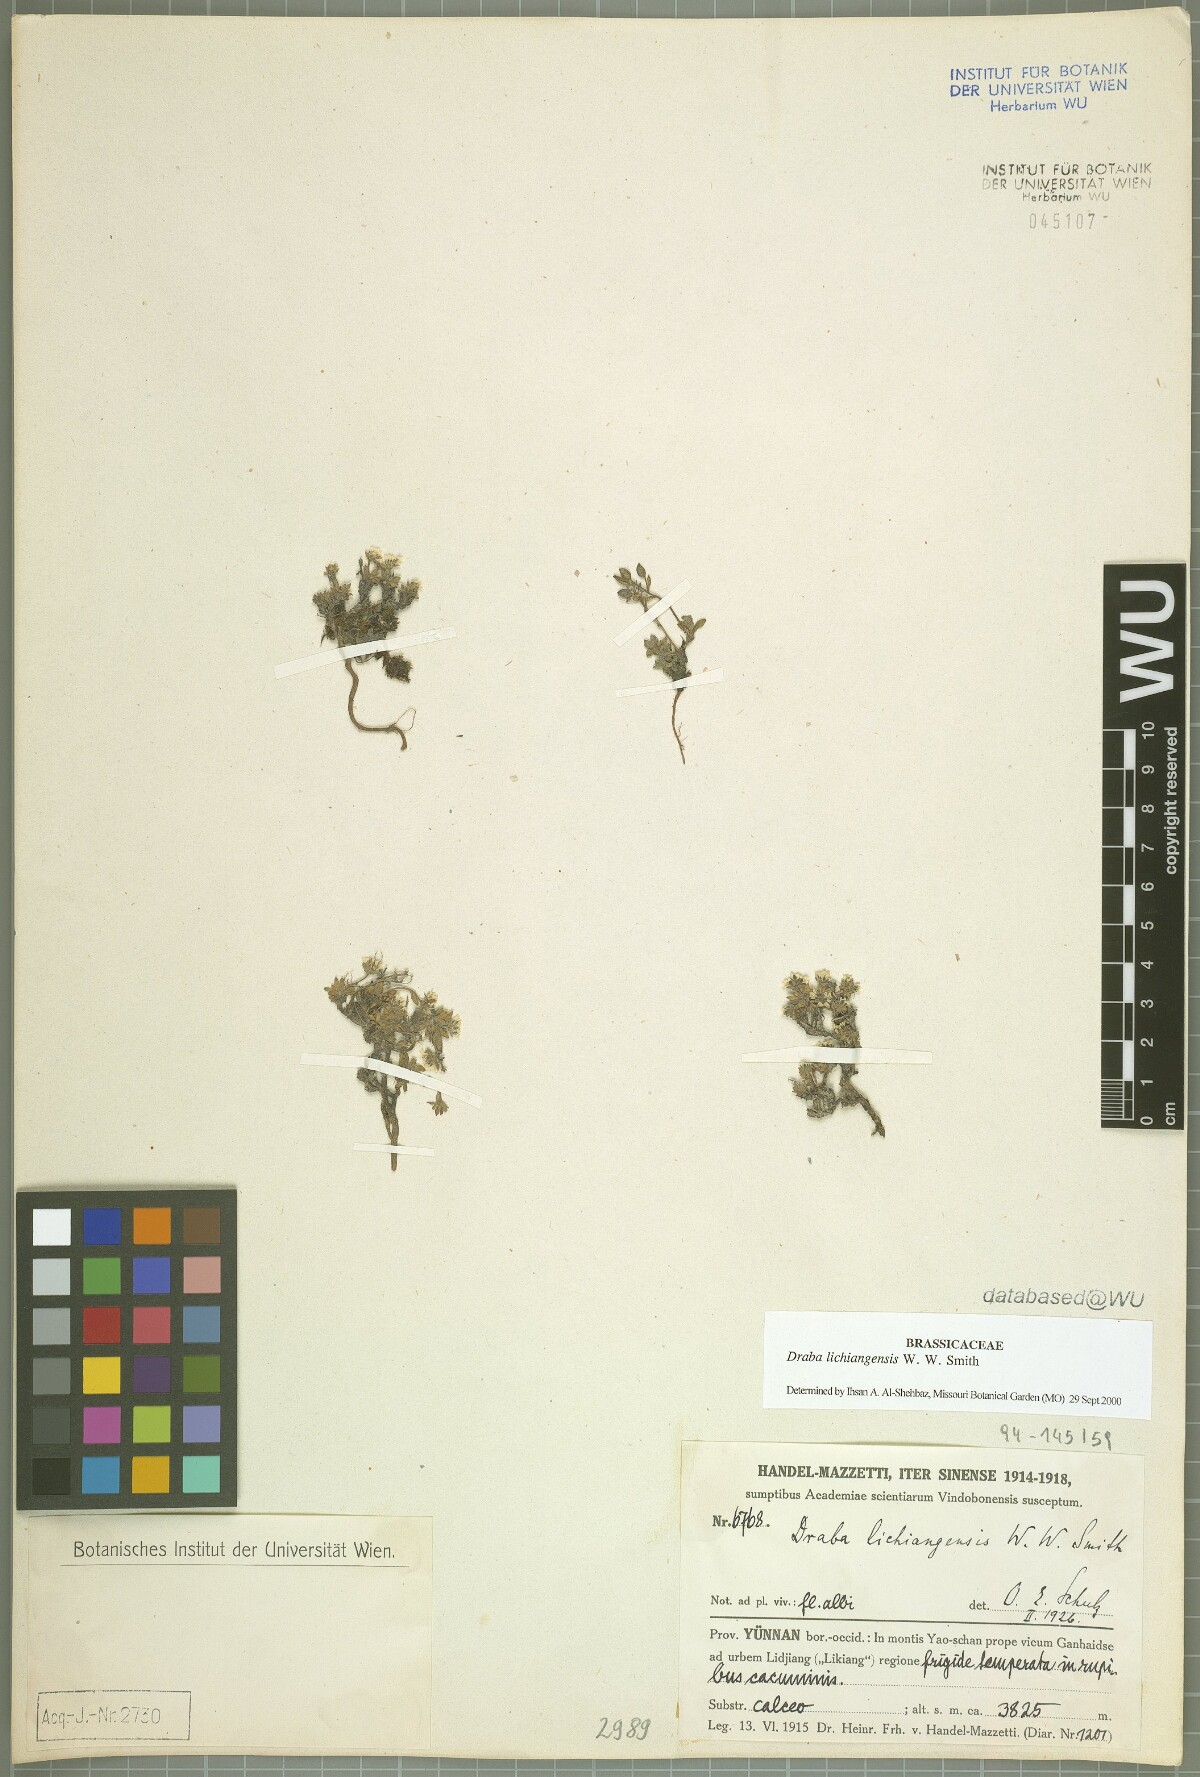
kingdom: Plantae
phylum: Tracheophyta
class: Magnoliopsida
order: Brassicales
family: Brassicaceae
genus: Draba
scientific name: Draba lichiangensis
